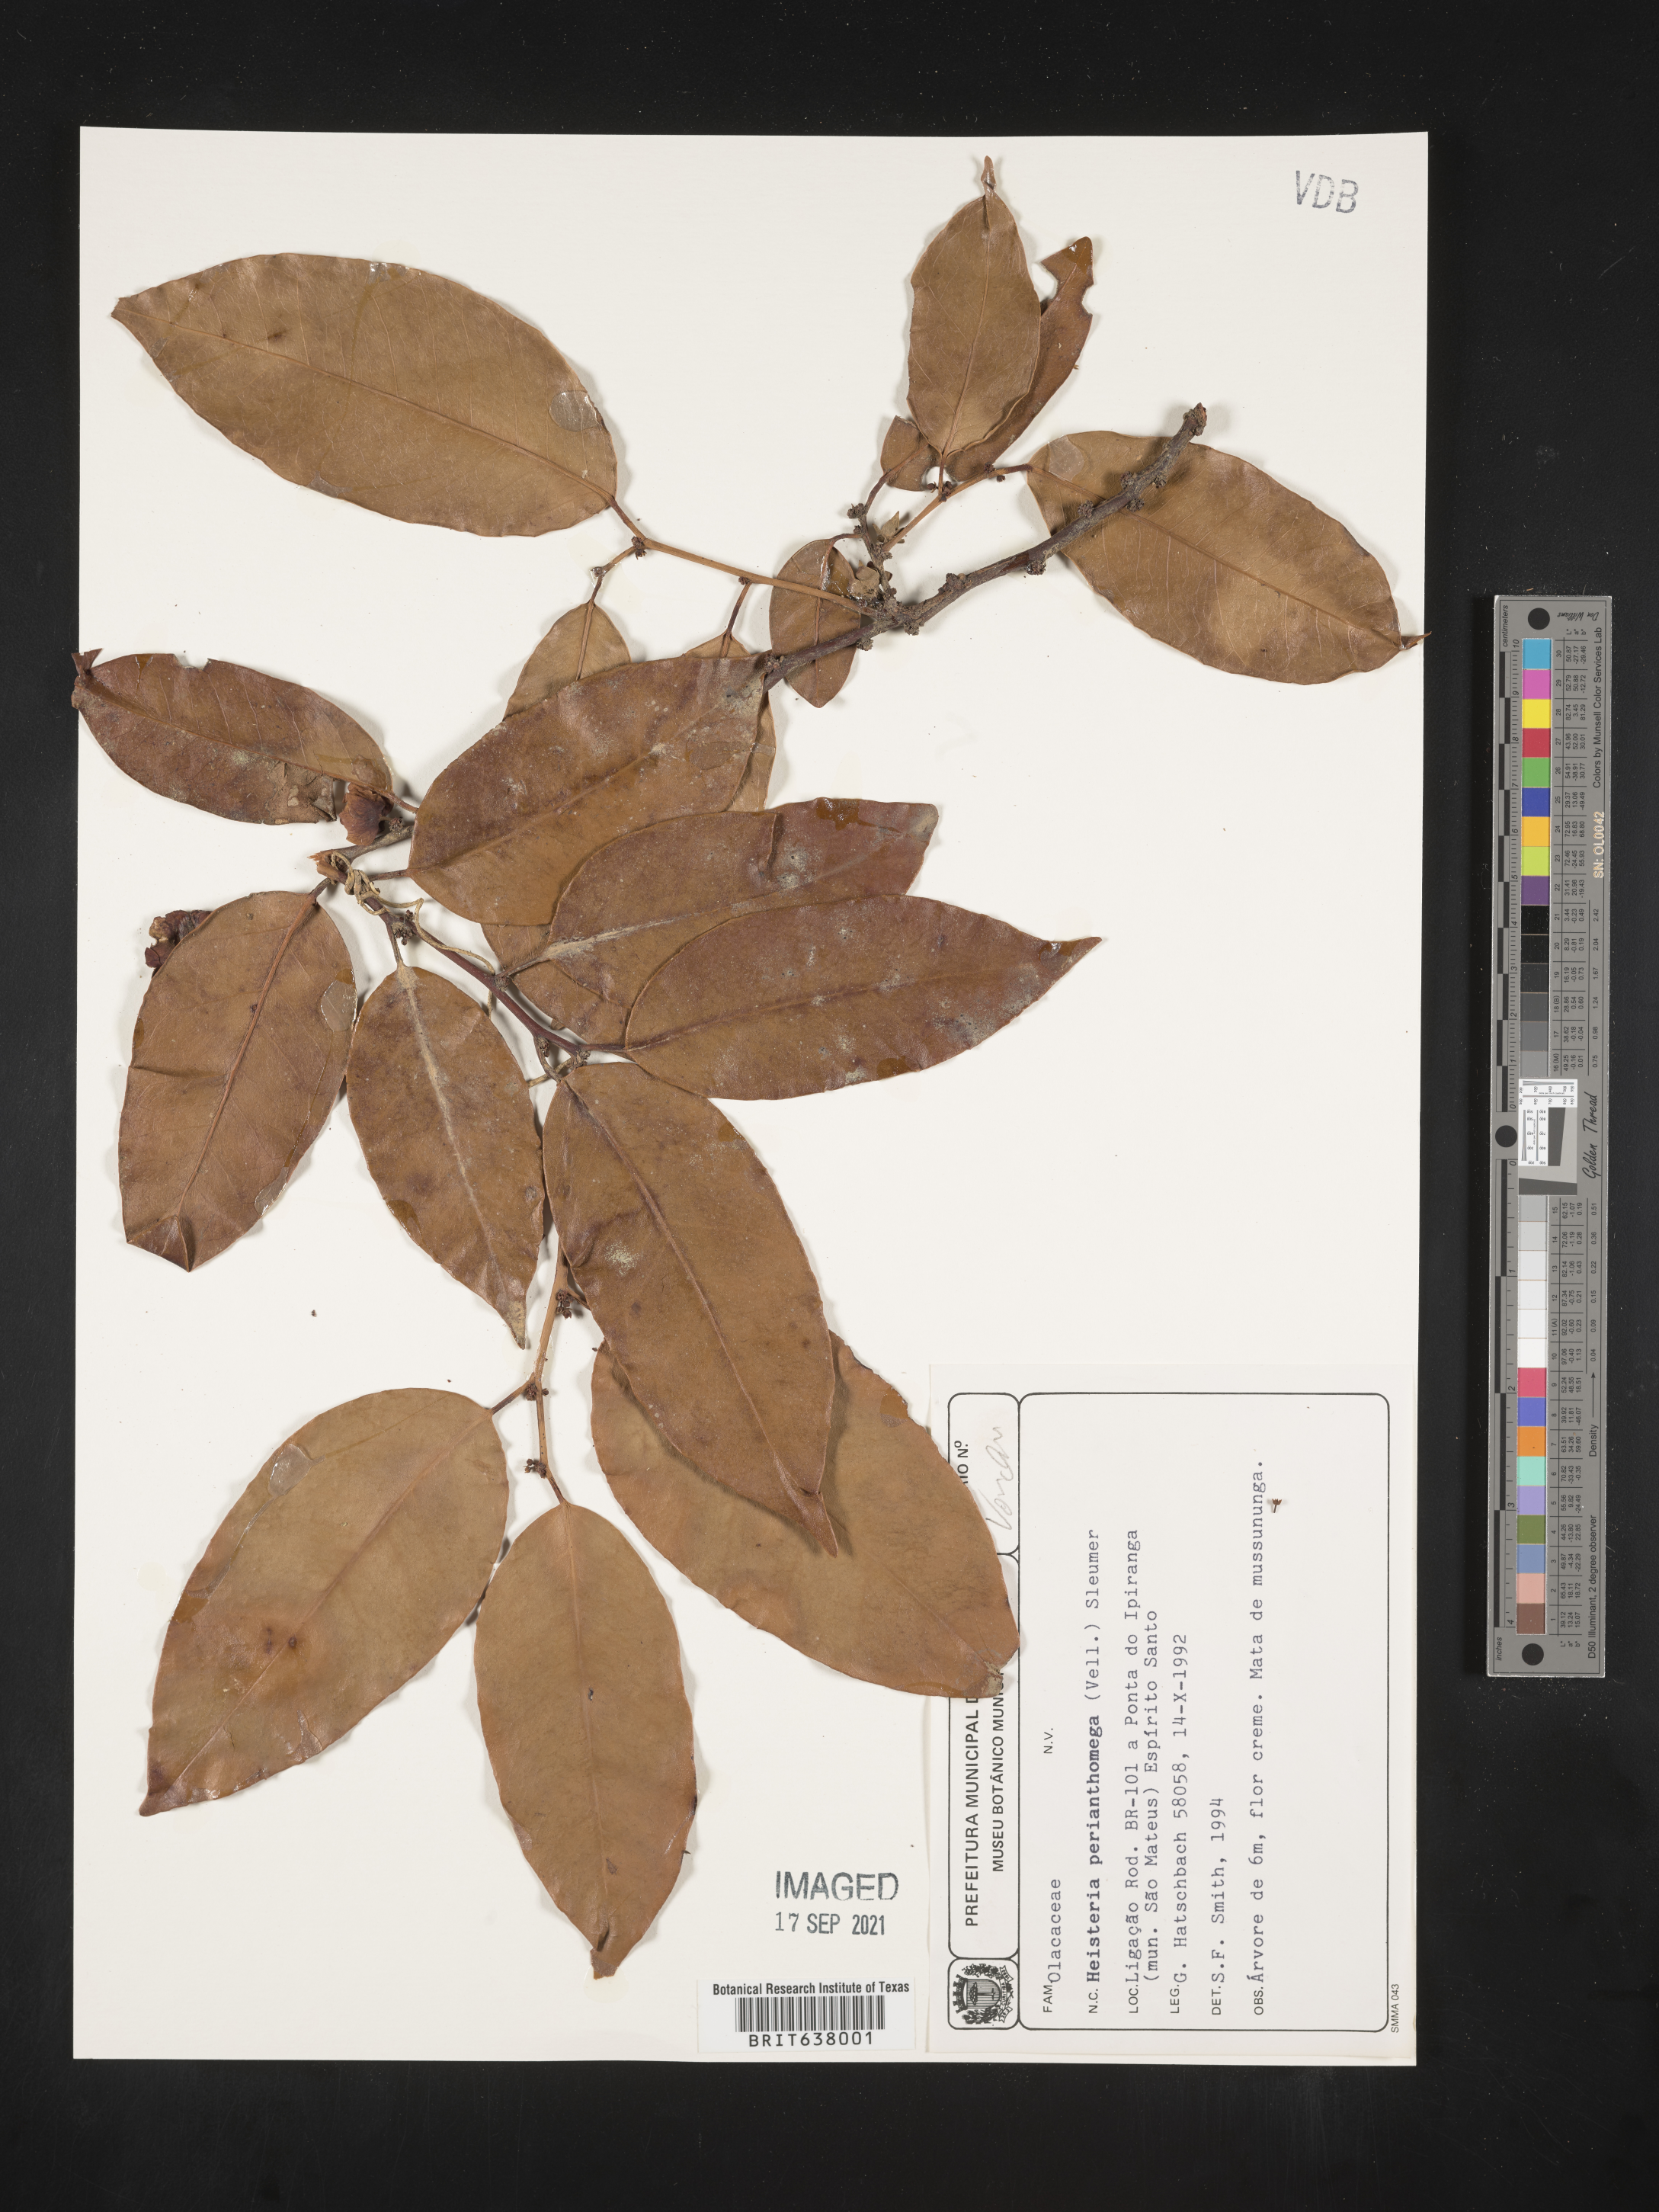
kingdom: Plantae
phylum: Tracheophyta
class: Magnoliopsida
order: Santalales
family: Erythropalaceae
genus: Heisteria
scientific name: Heisteria
